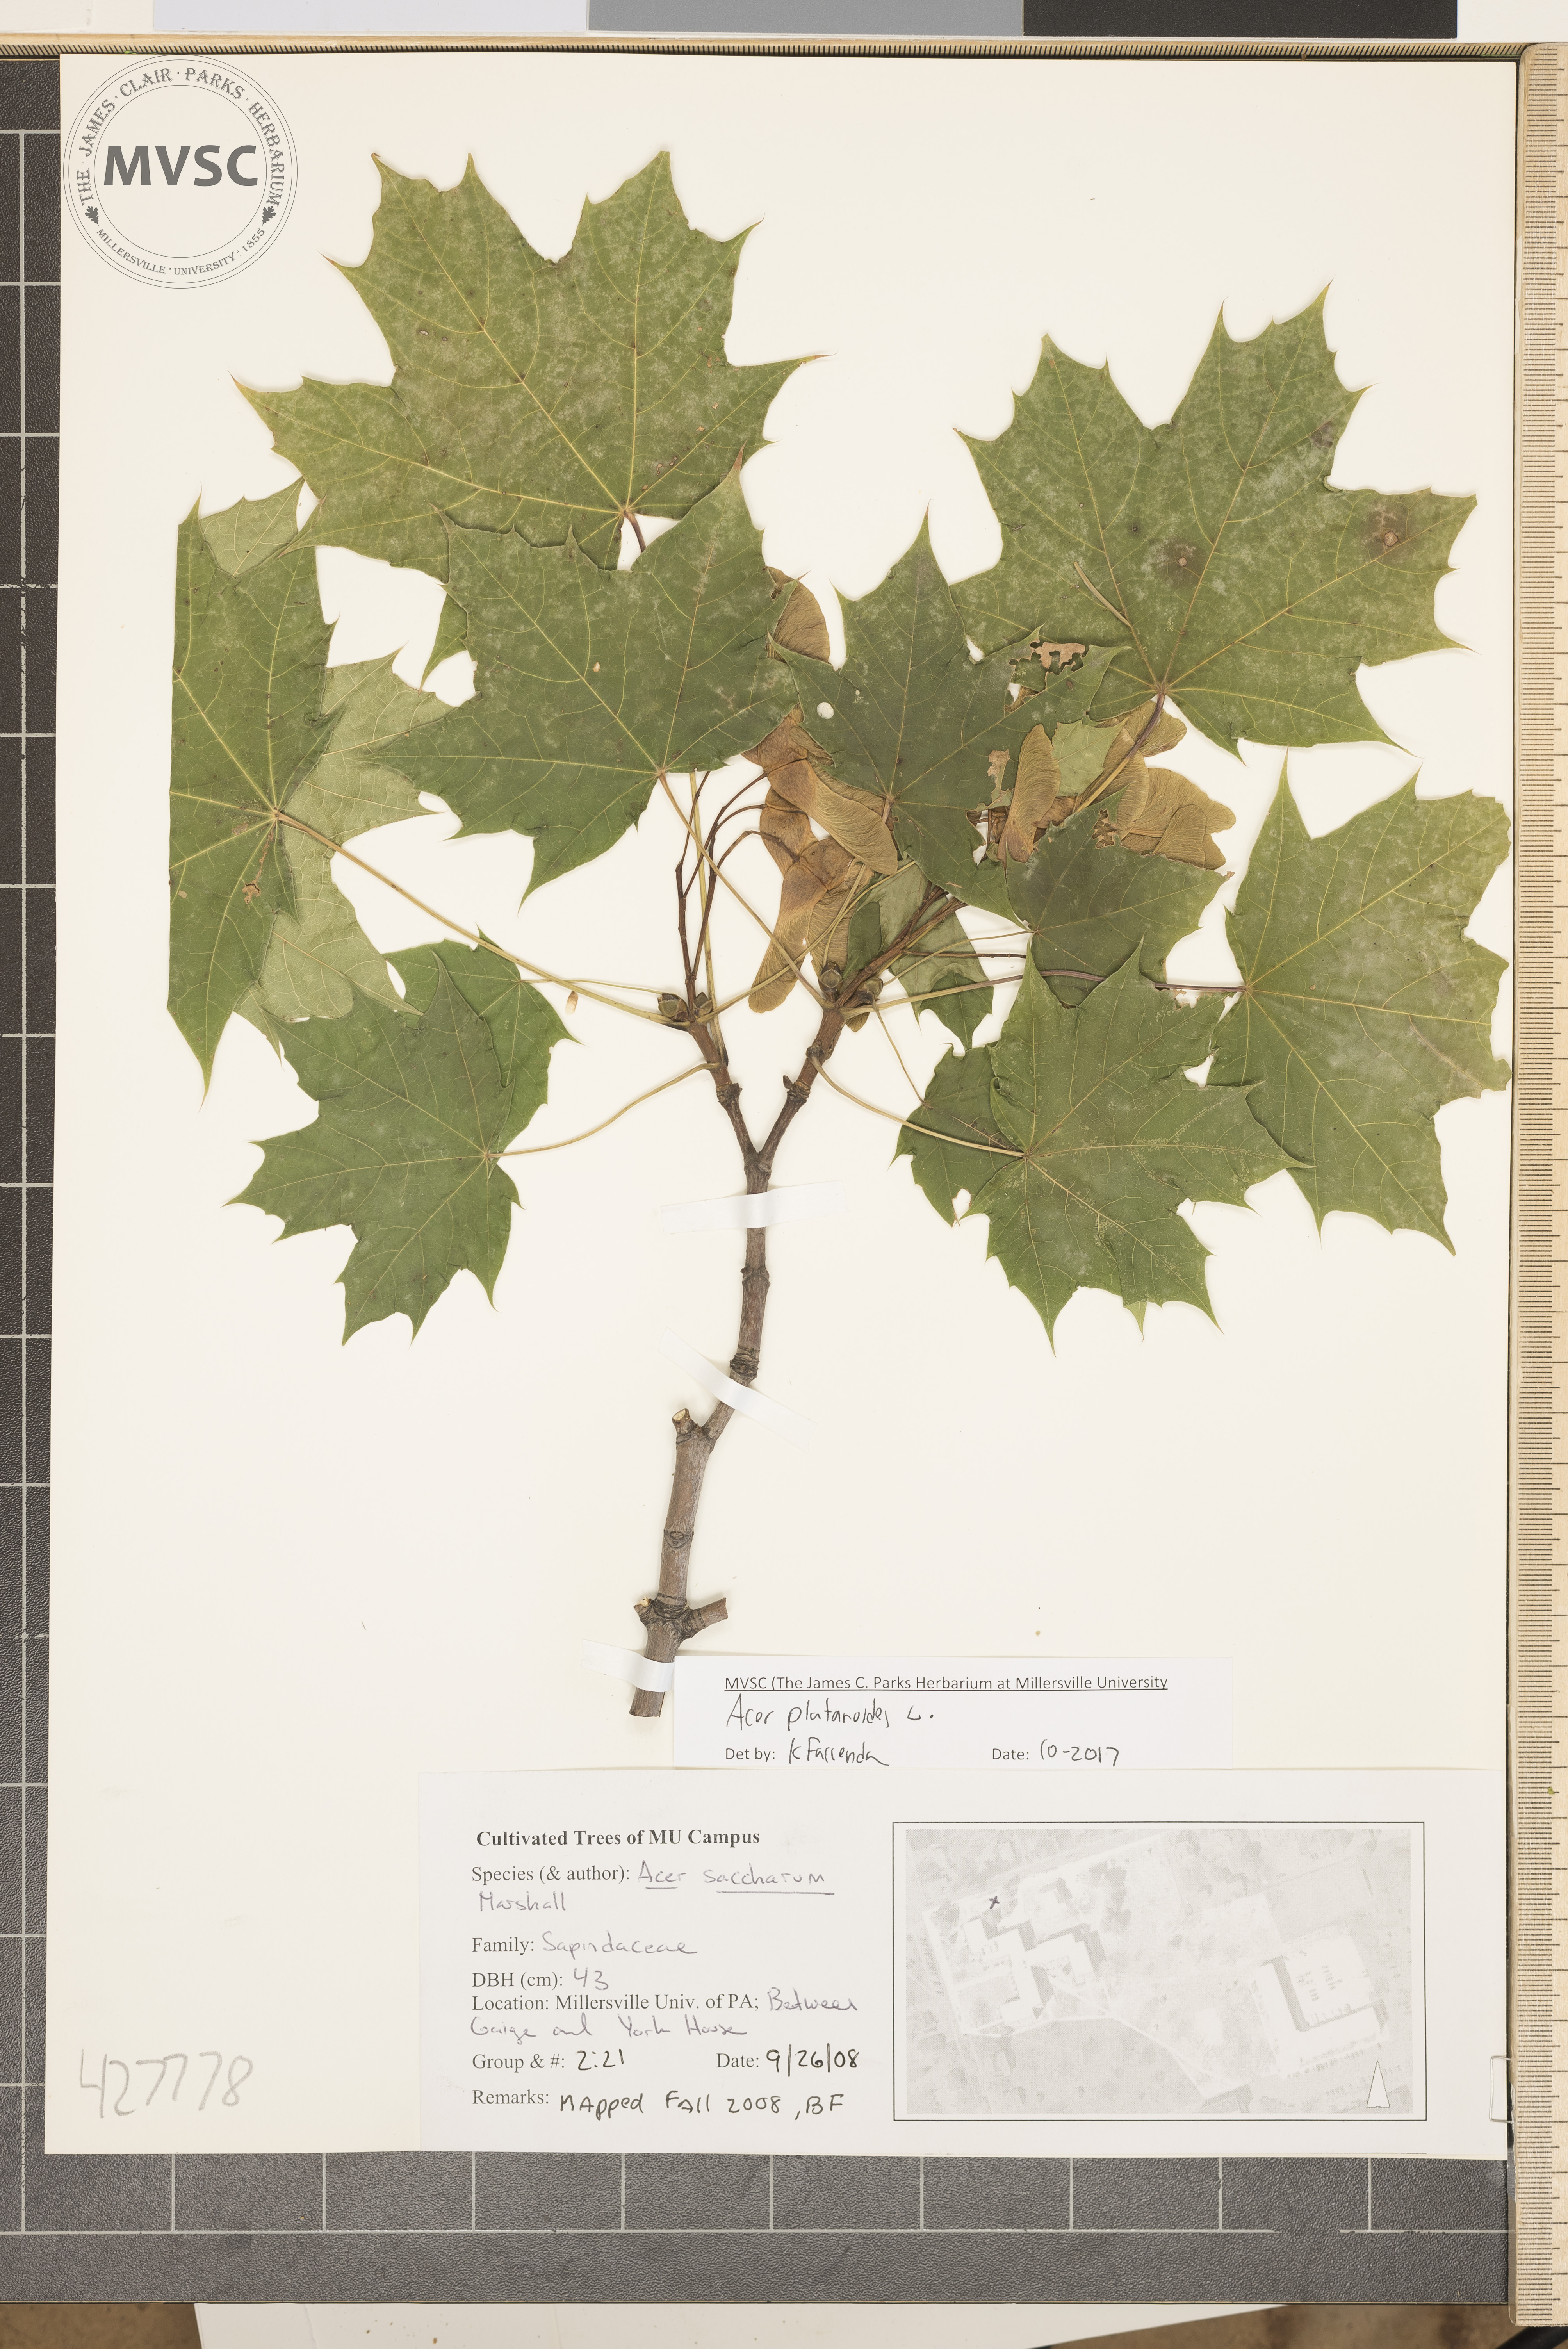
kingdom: Plantae
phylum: Tracheophyta
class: Magnoliopsida
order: Sapindales
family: Sapindaceae
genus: Acer
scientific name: Acer platanoides
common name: Norway maple
